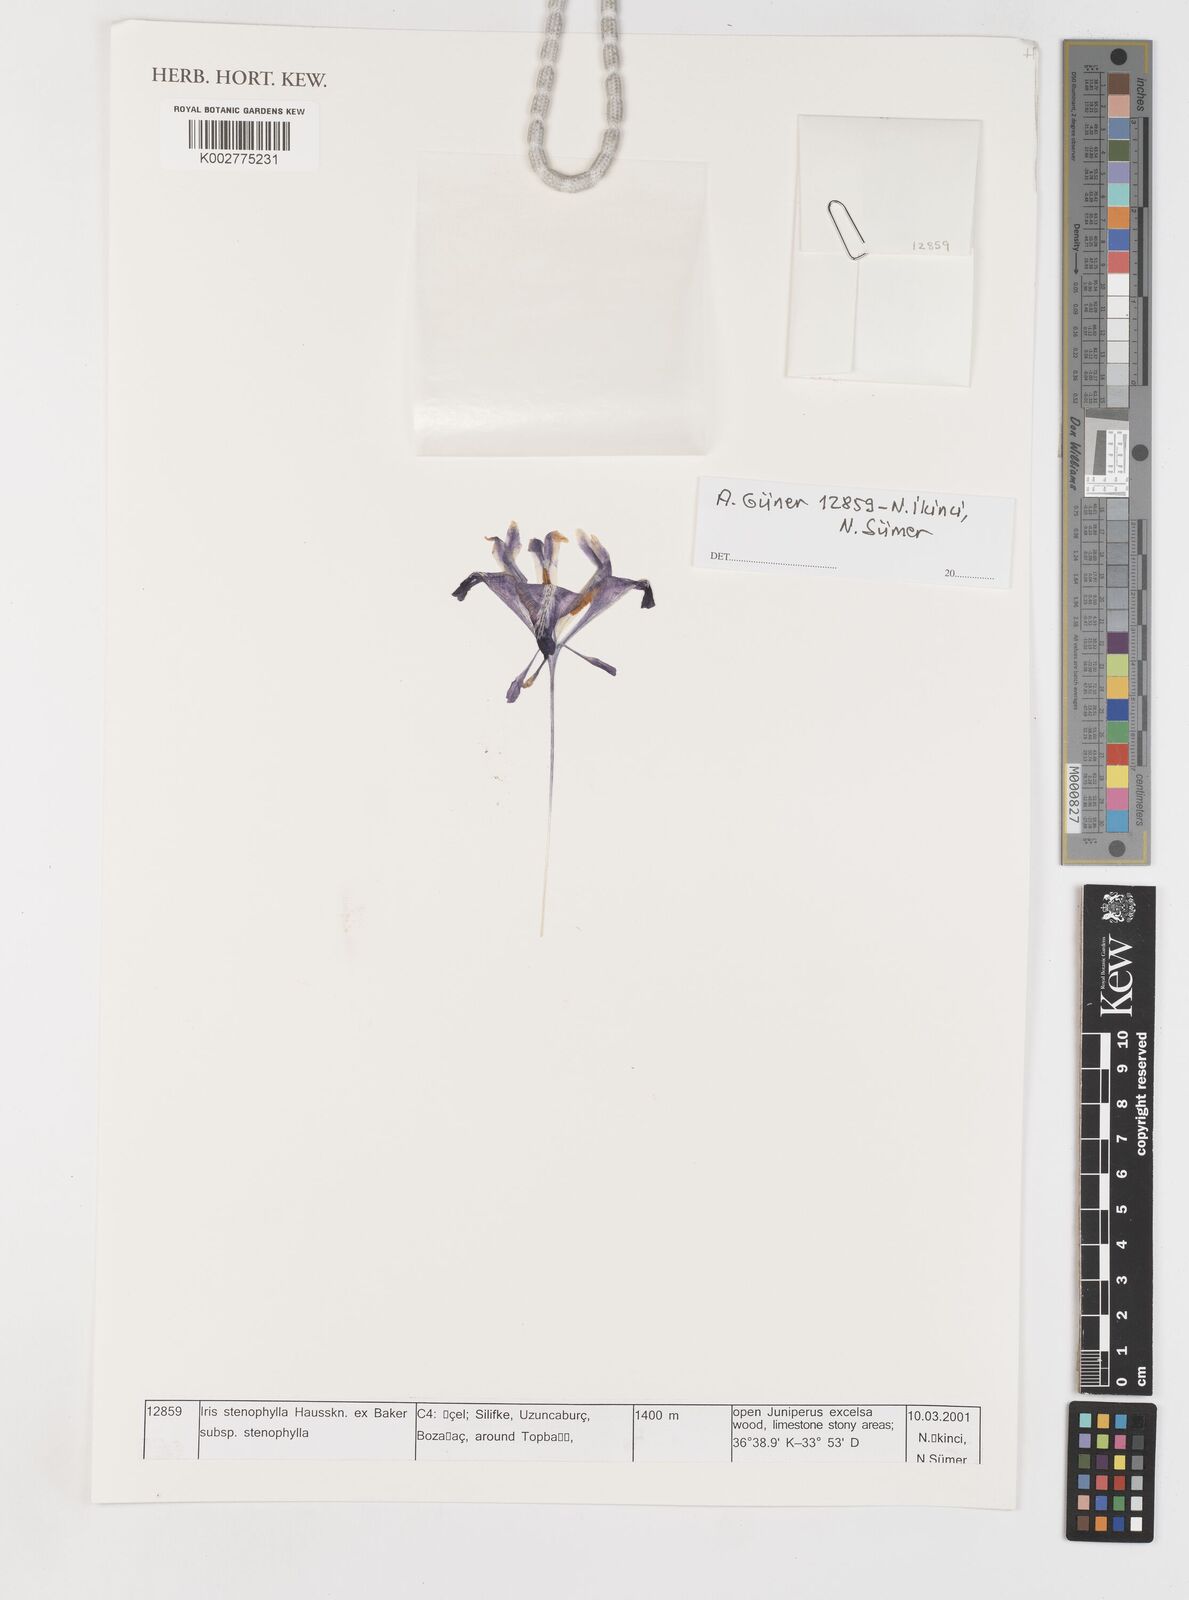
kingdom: Plantae
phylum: Tracheophyta
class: Liliopsida
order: Asparagales
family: Iridaceae
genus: Iris
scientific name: Iris stenophylla
